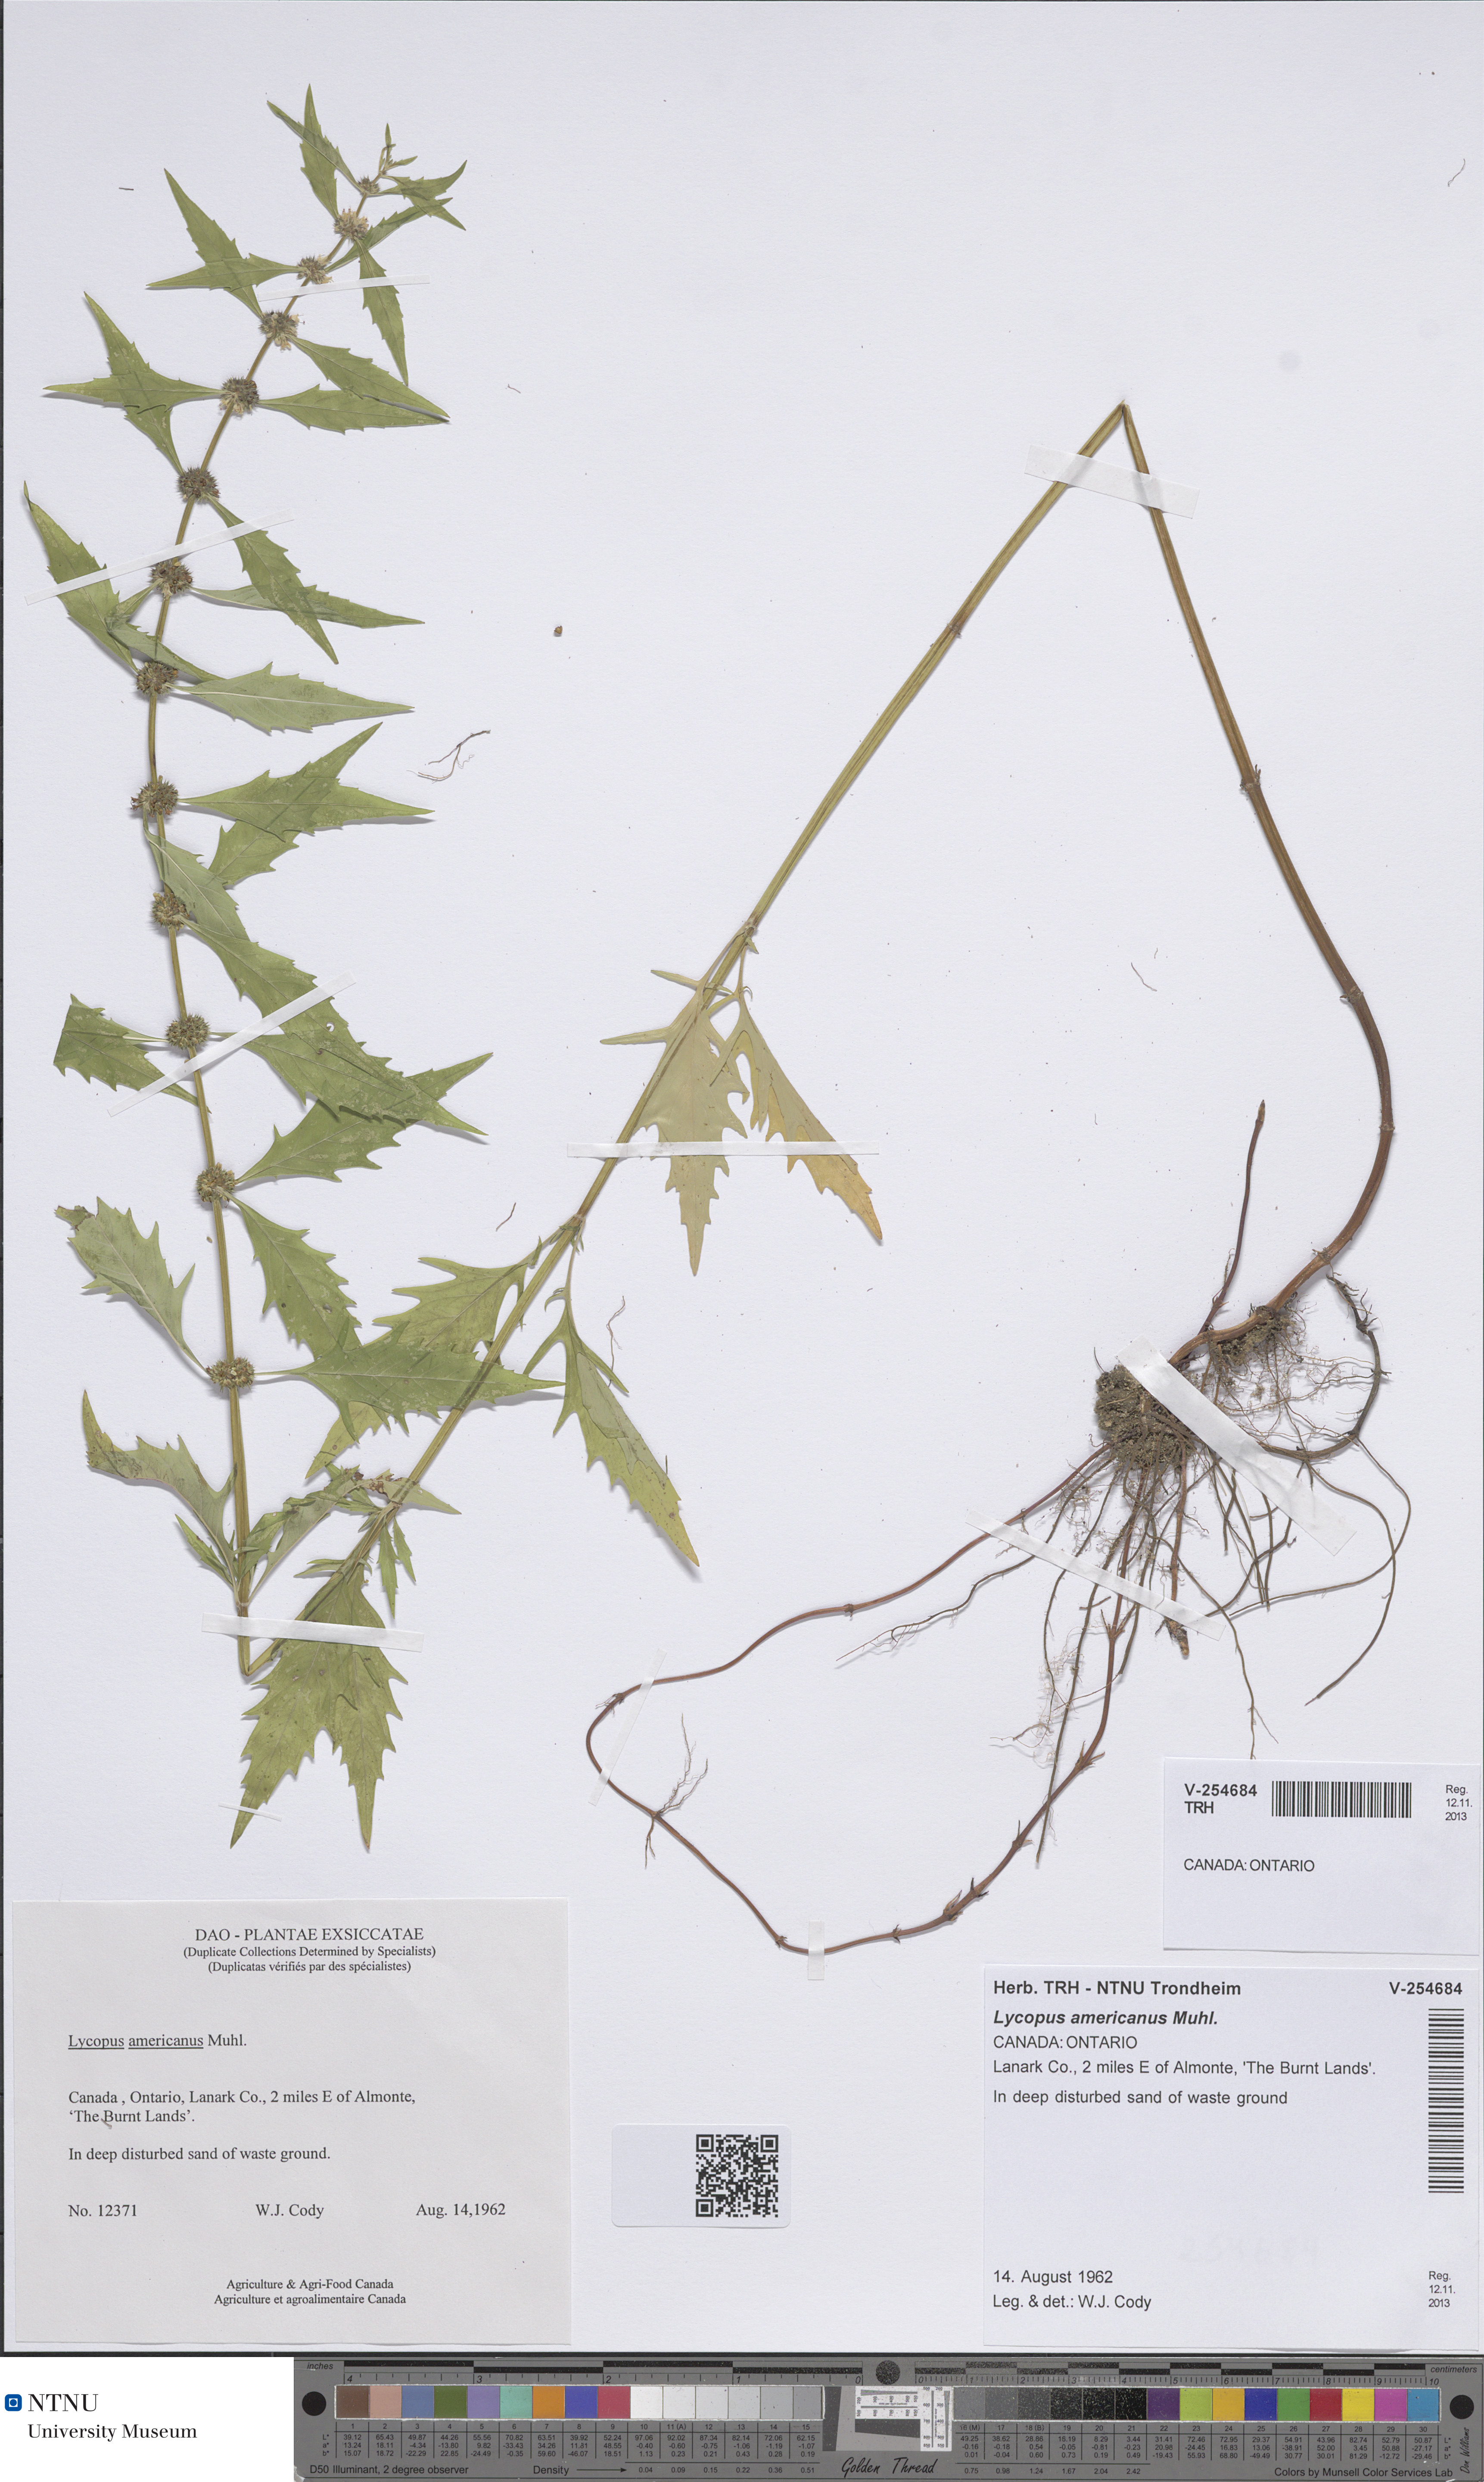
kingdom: Plantae
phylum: Tracheophyta
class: Magnoliopsida
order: Lamiales
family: Lamiaceae
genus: Lycopus
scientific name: Lycopus americanus
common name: American bugleweed
